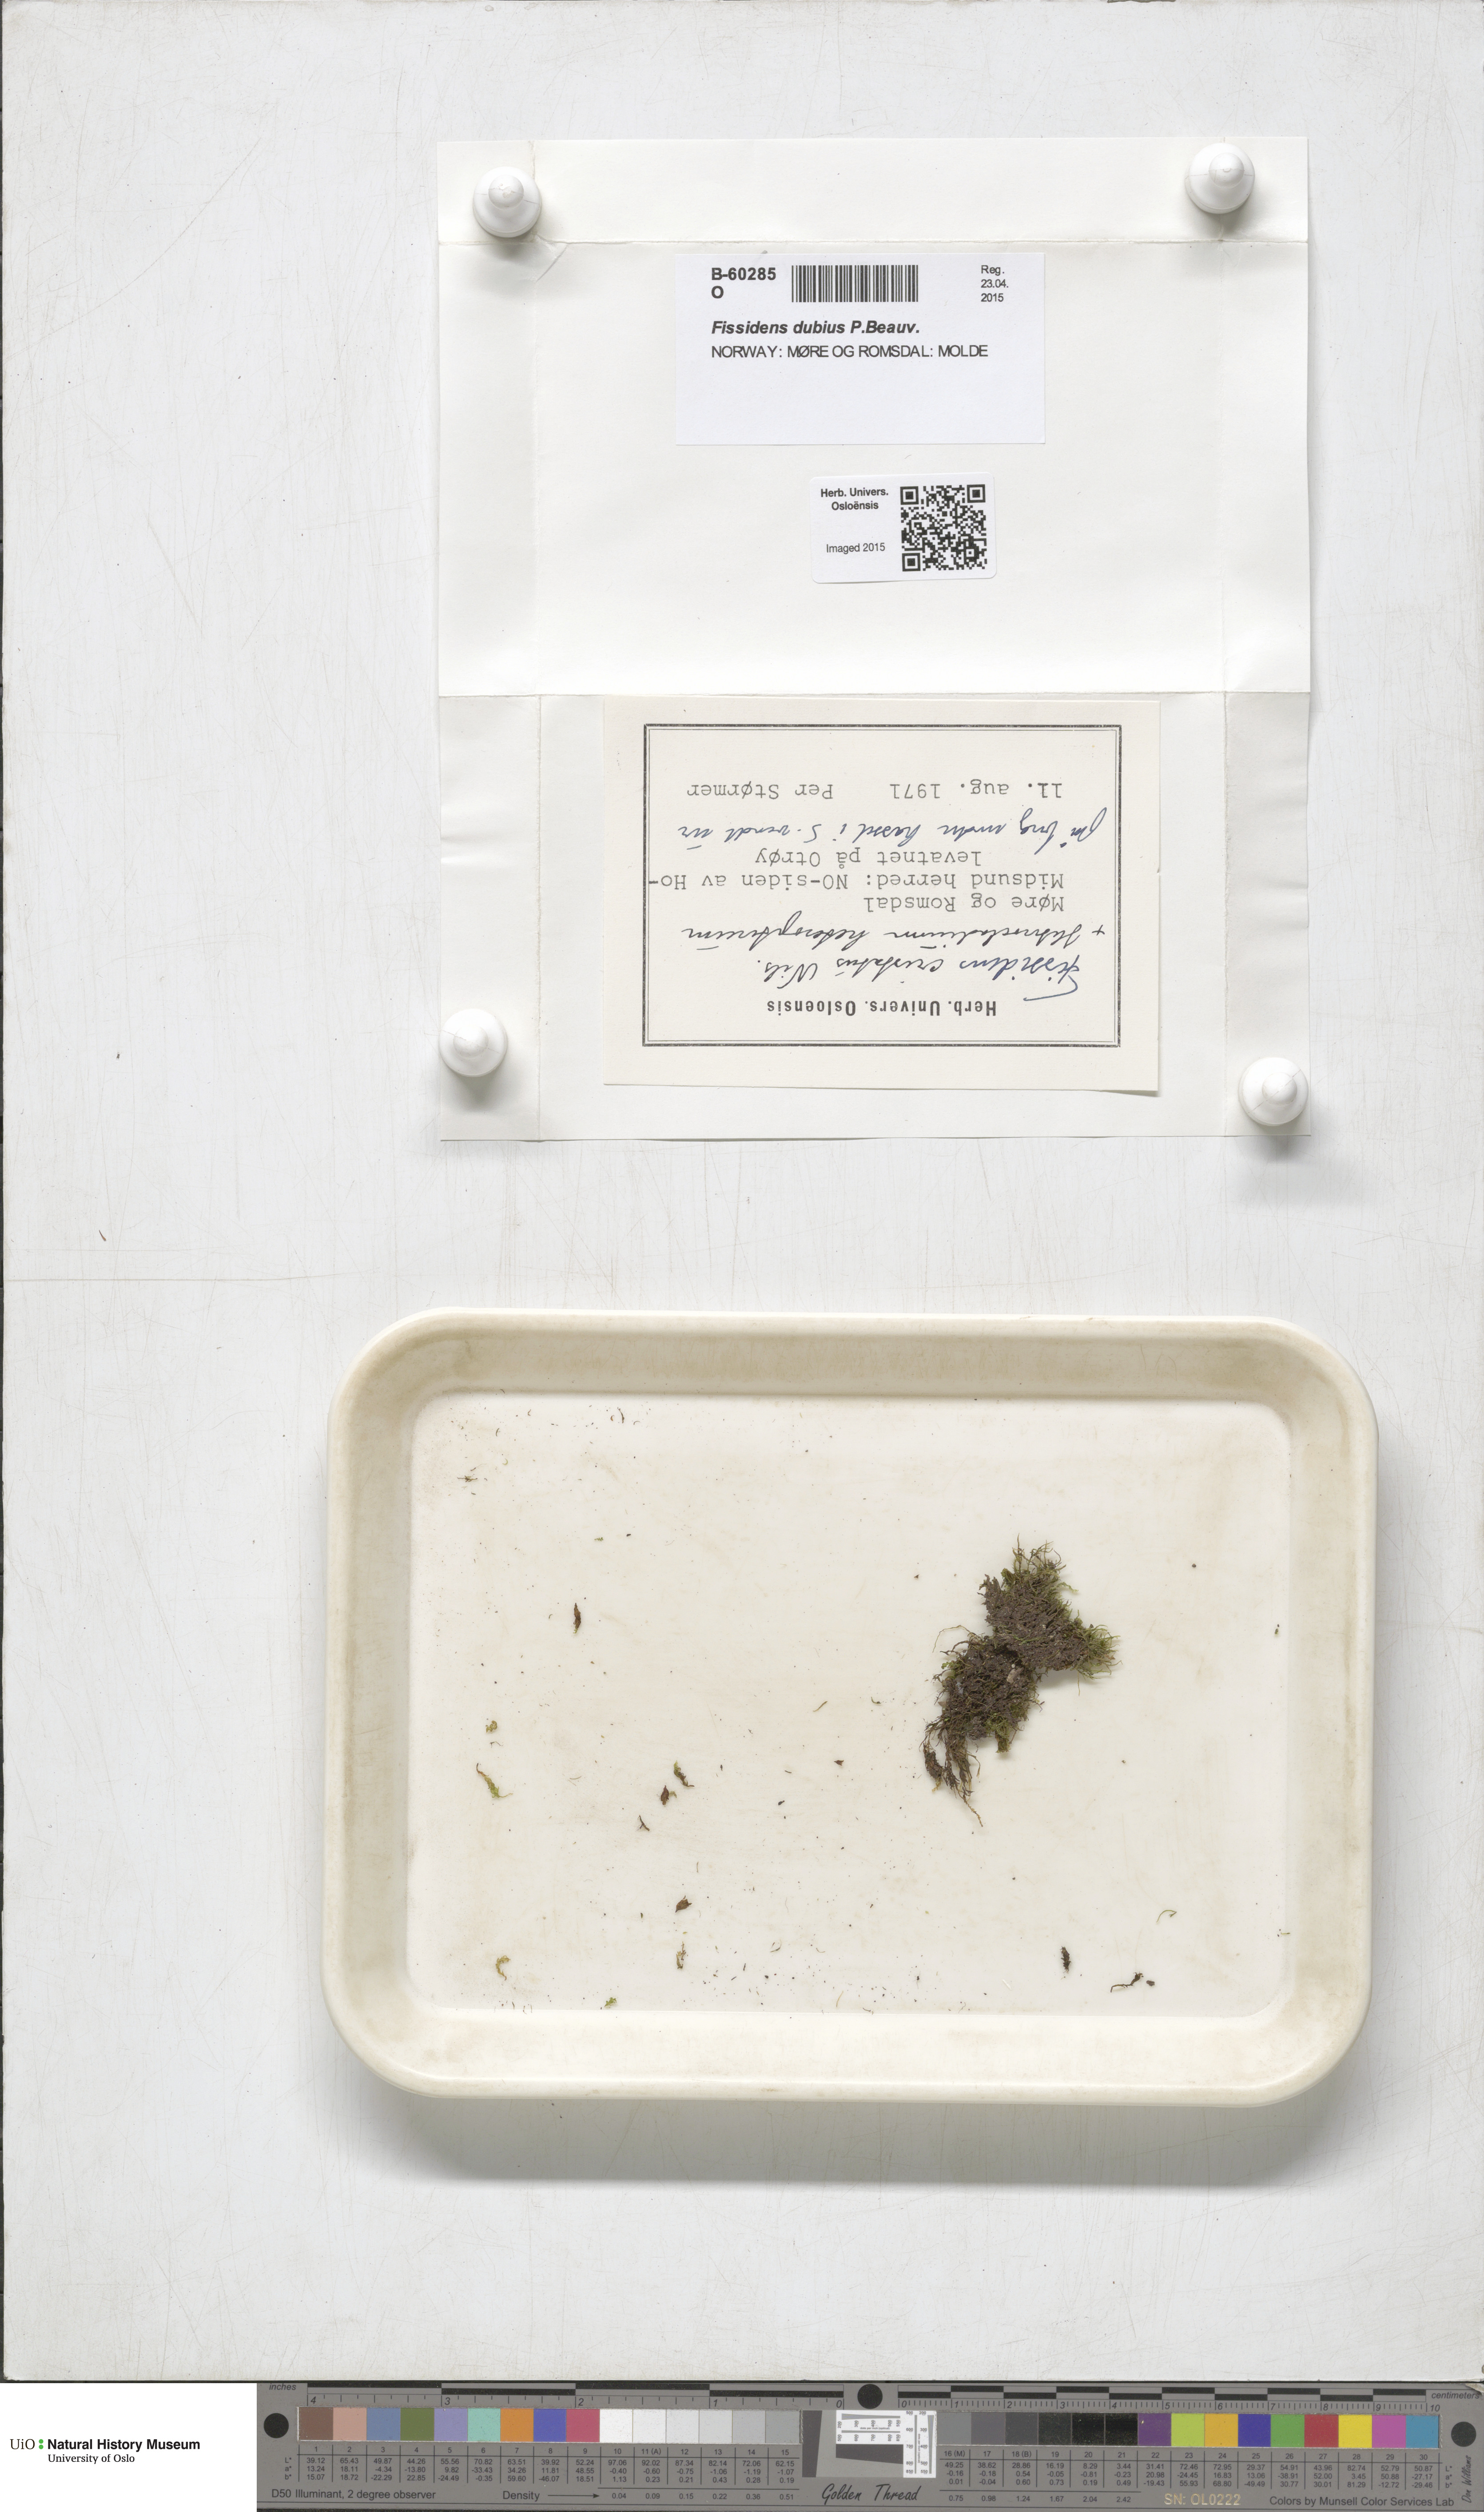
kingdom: Plantae
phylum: Bryophyta
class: Bryopsida
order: Dicranales
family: Fissidentaceae
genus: Fissidens
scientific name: Fissidens dubius
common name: Rock pocket moss
